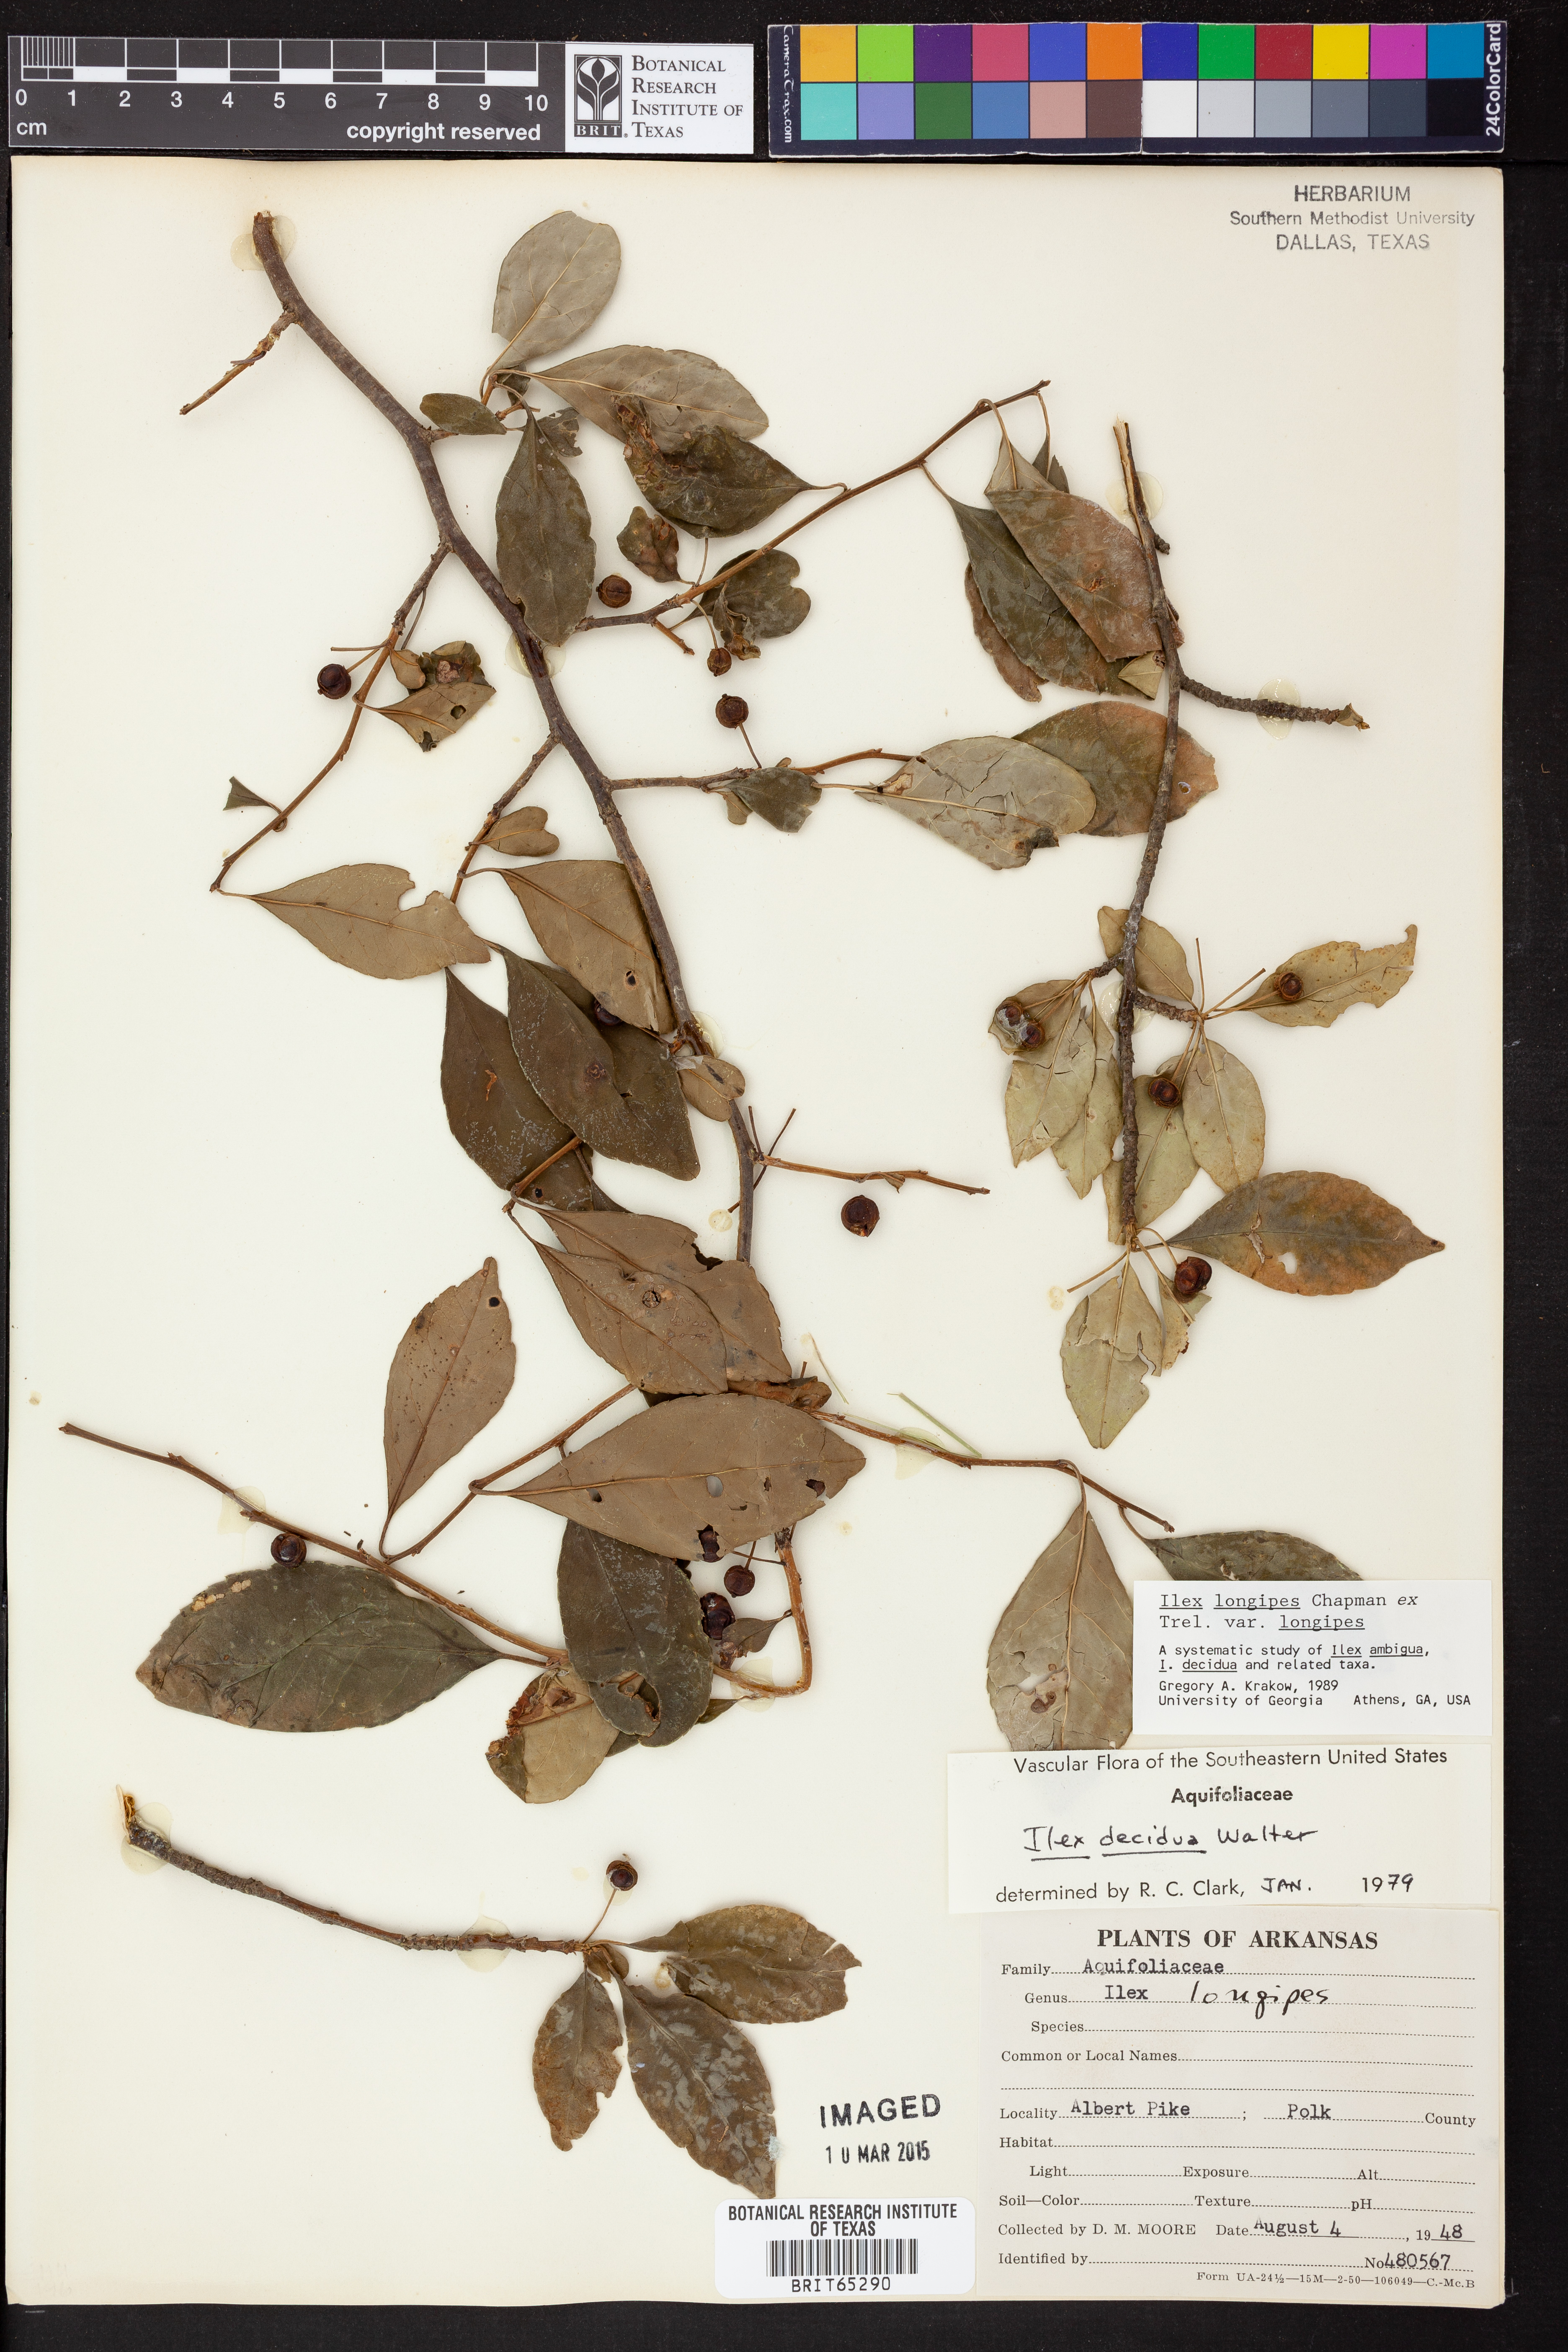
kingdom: Plantae
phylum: Tracheophyta
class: Magnoliopsida
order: Aquifoliales
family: Aquifoliaceae
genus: Ilex
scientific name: Ilex longipes
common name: Georgia holly
